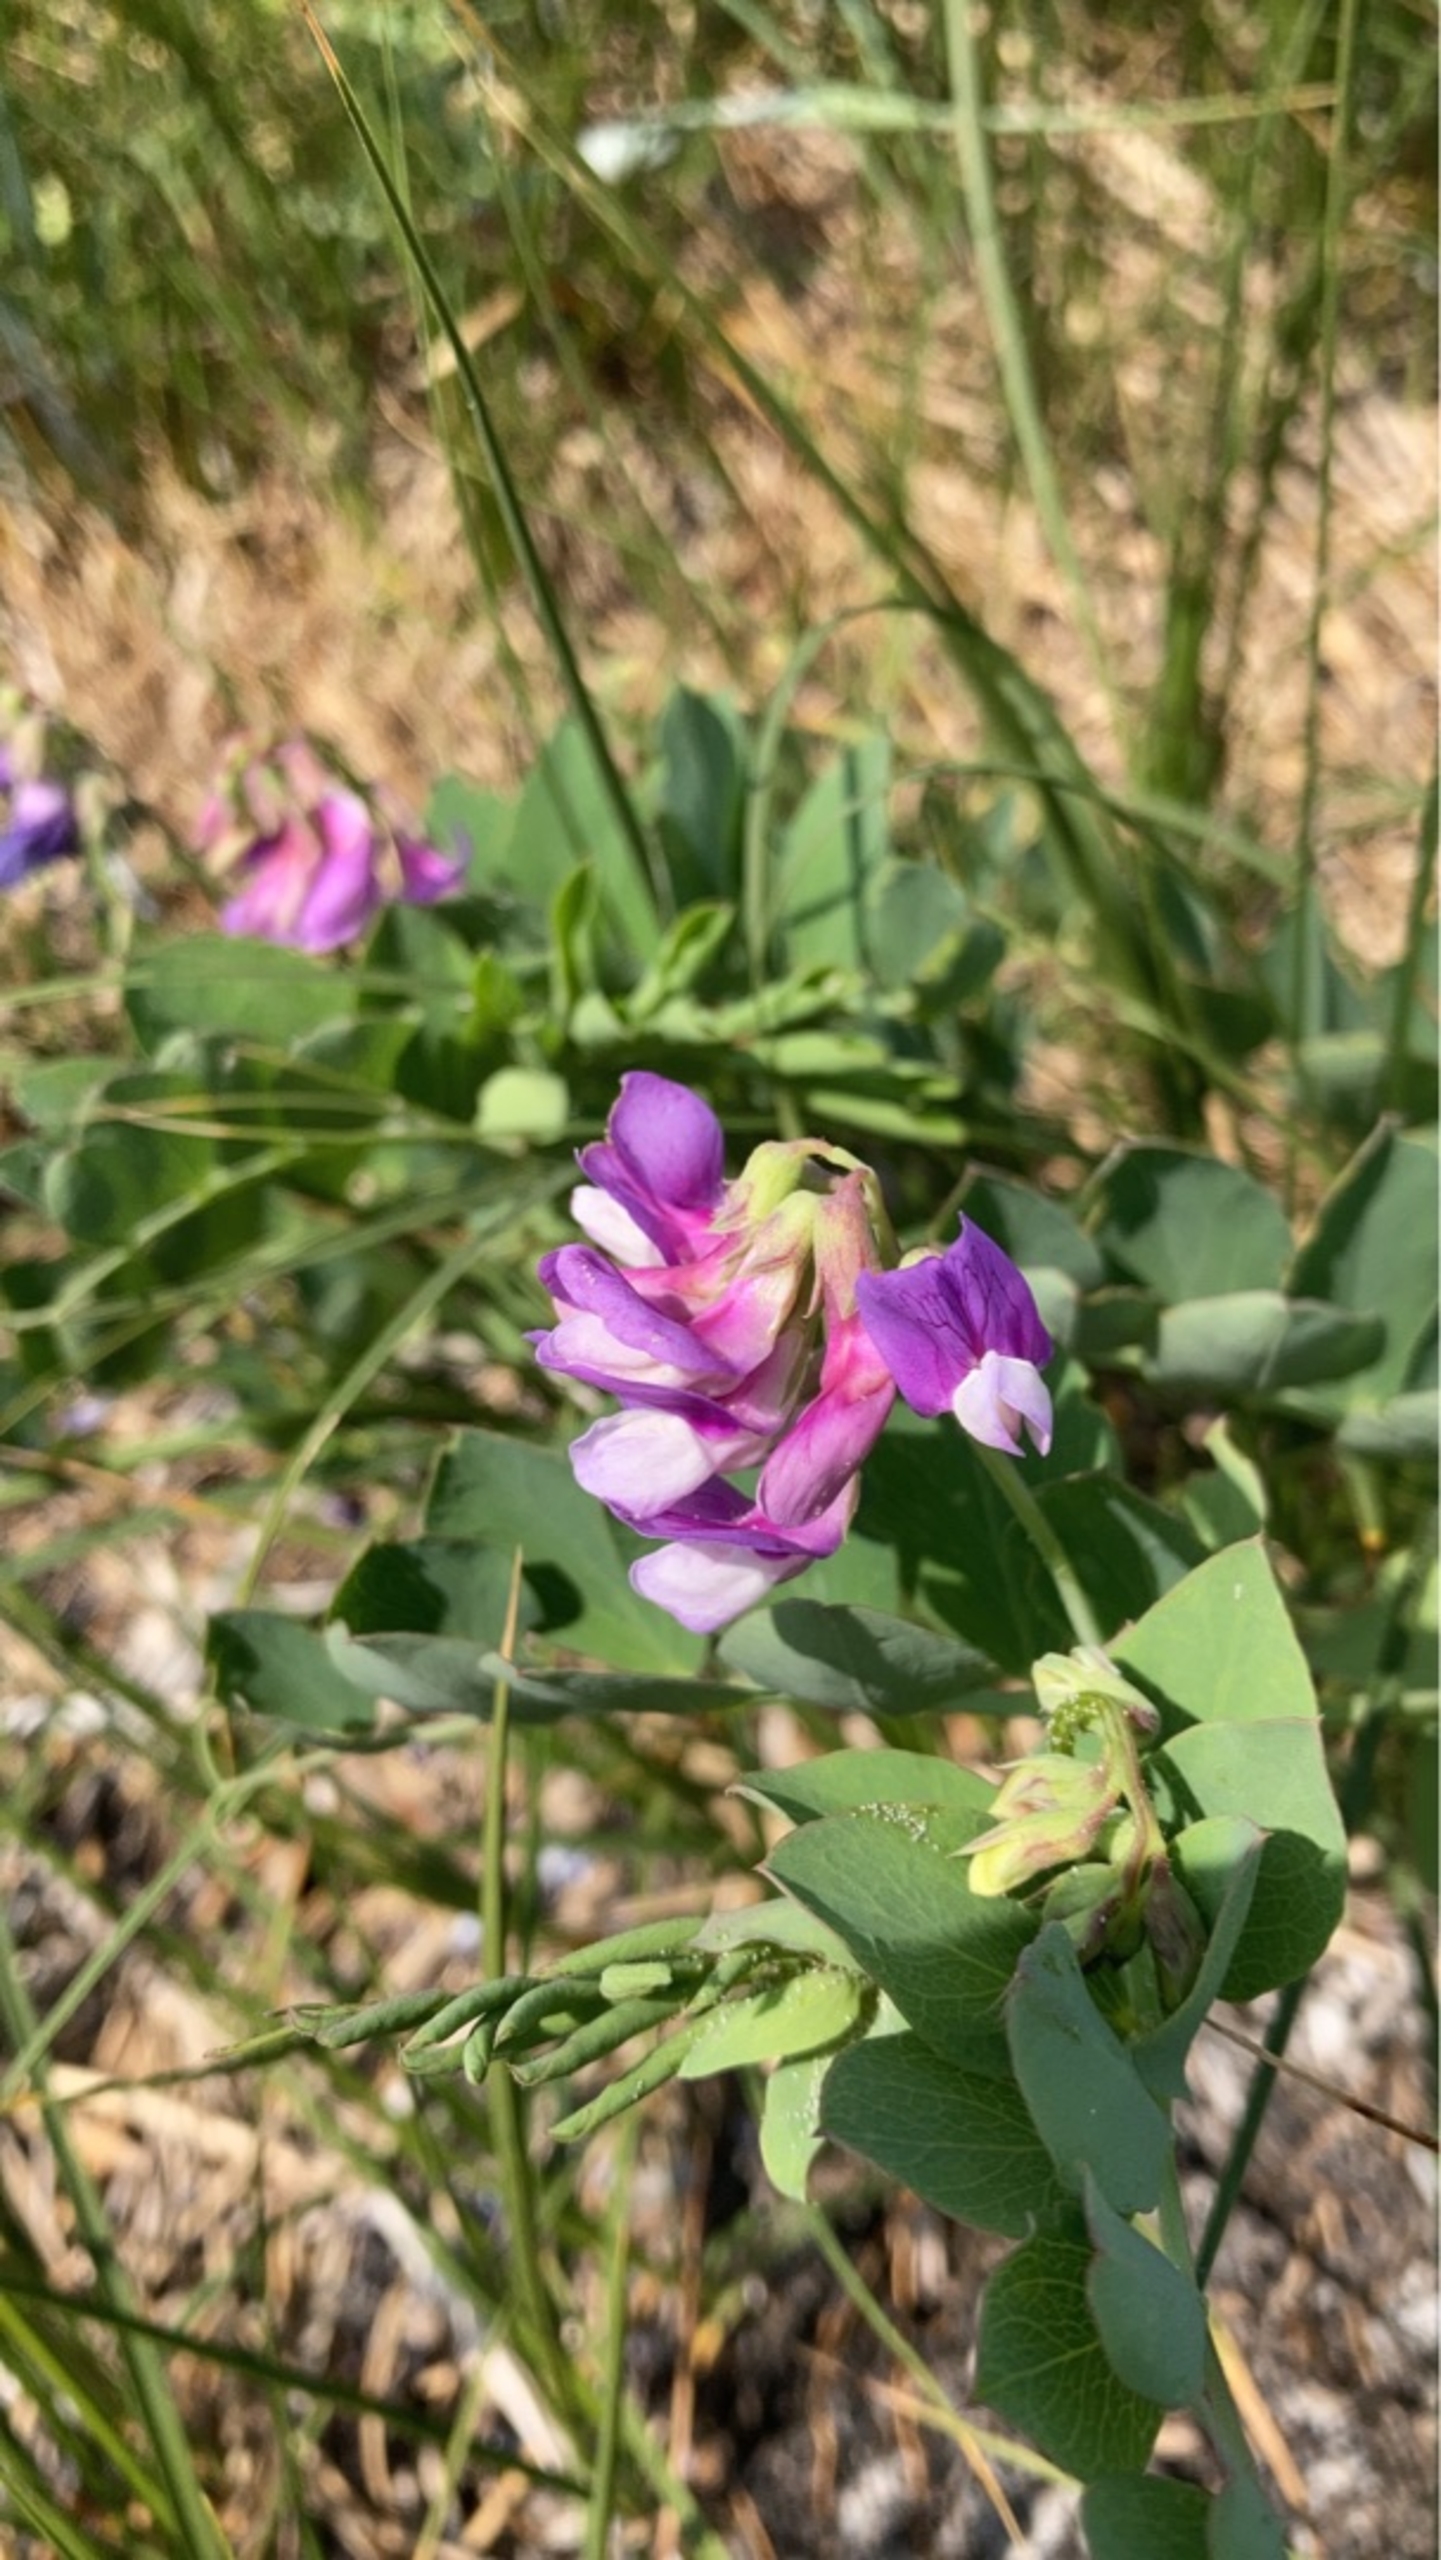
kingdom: Plantae
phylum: Tracheophyta
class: Magnoliopsida
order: Fabales
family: Fabaceae
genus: Lathyrus
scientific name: Lathyrus japonicus
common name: Strand-fladbælg
